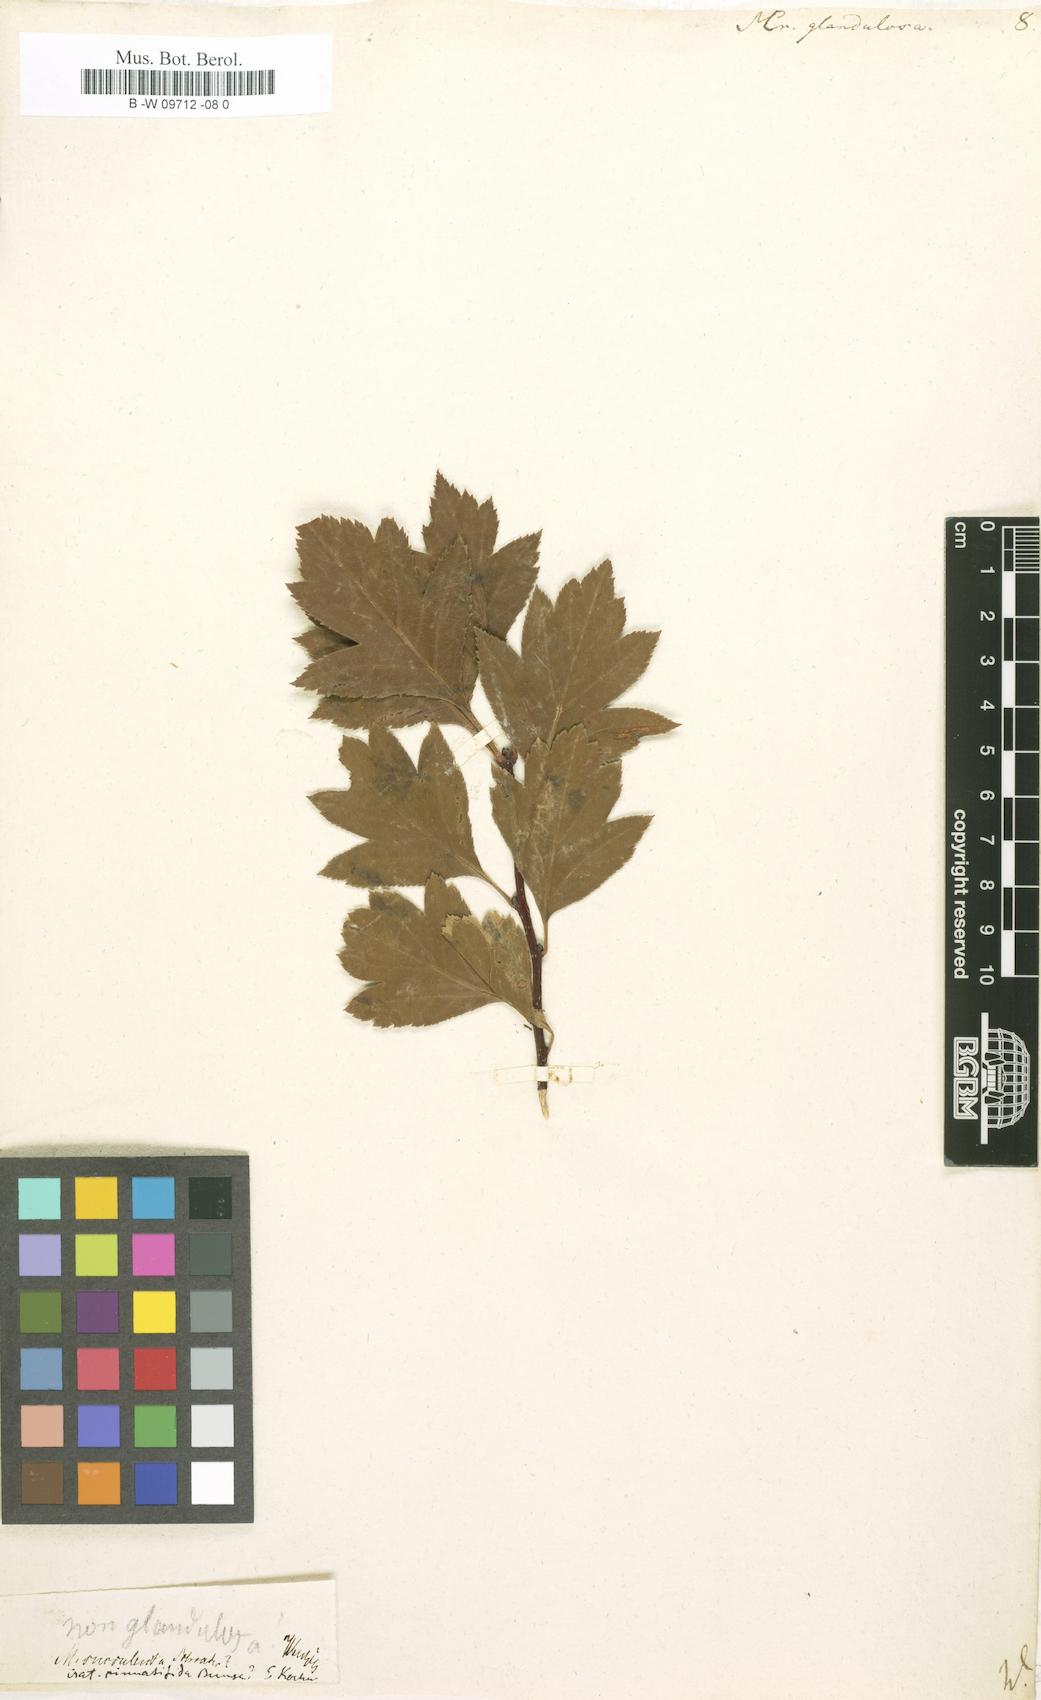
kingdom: Plantae
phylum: Tracheophyta
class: Magnoliopsida
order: Rosales
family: Rosaceae
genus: Crataegus
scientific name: Crataegus
